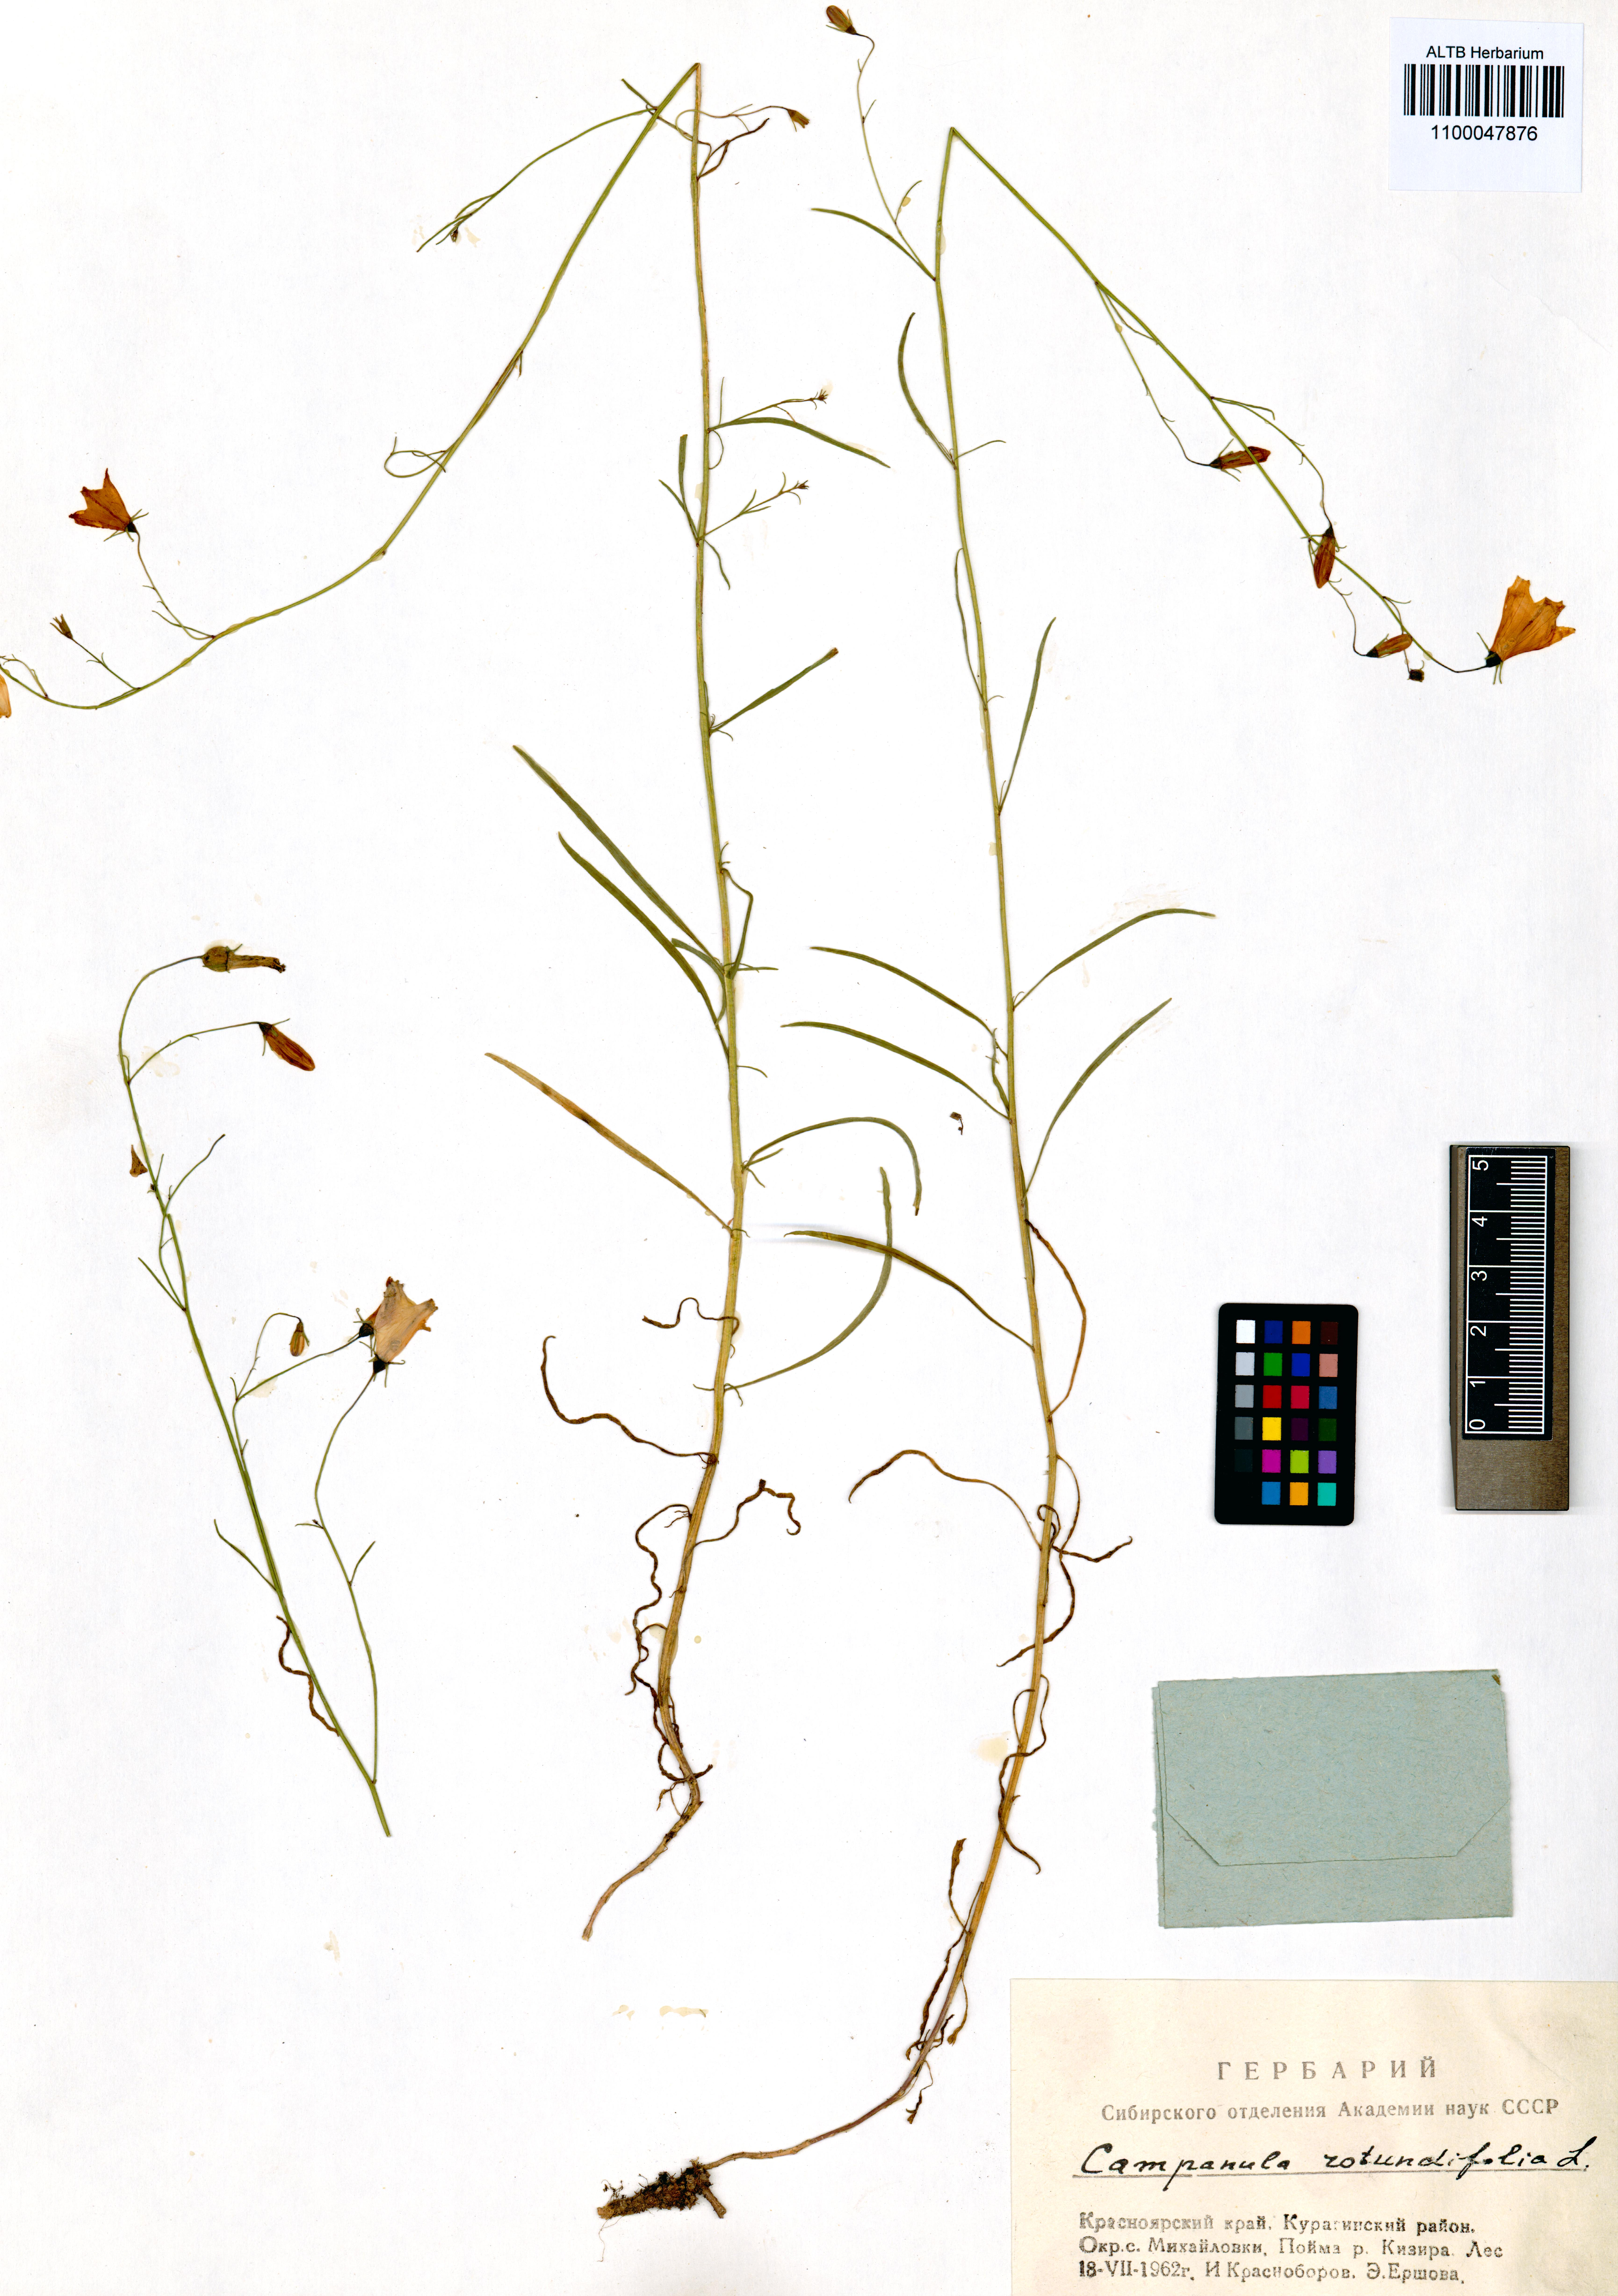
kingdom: Plantae
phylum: Tracheophyta
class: Magnoliopsida
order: Asterales
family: Campanulaceae
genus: Campanula
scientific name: Campanula rotundifolia
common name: Harebell
